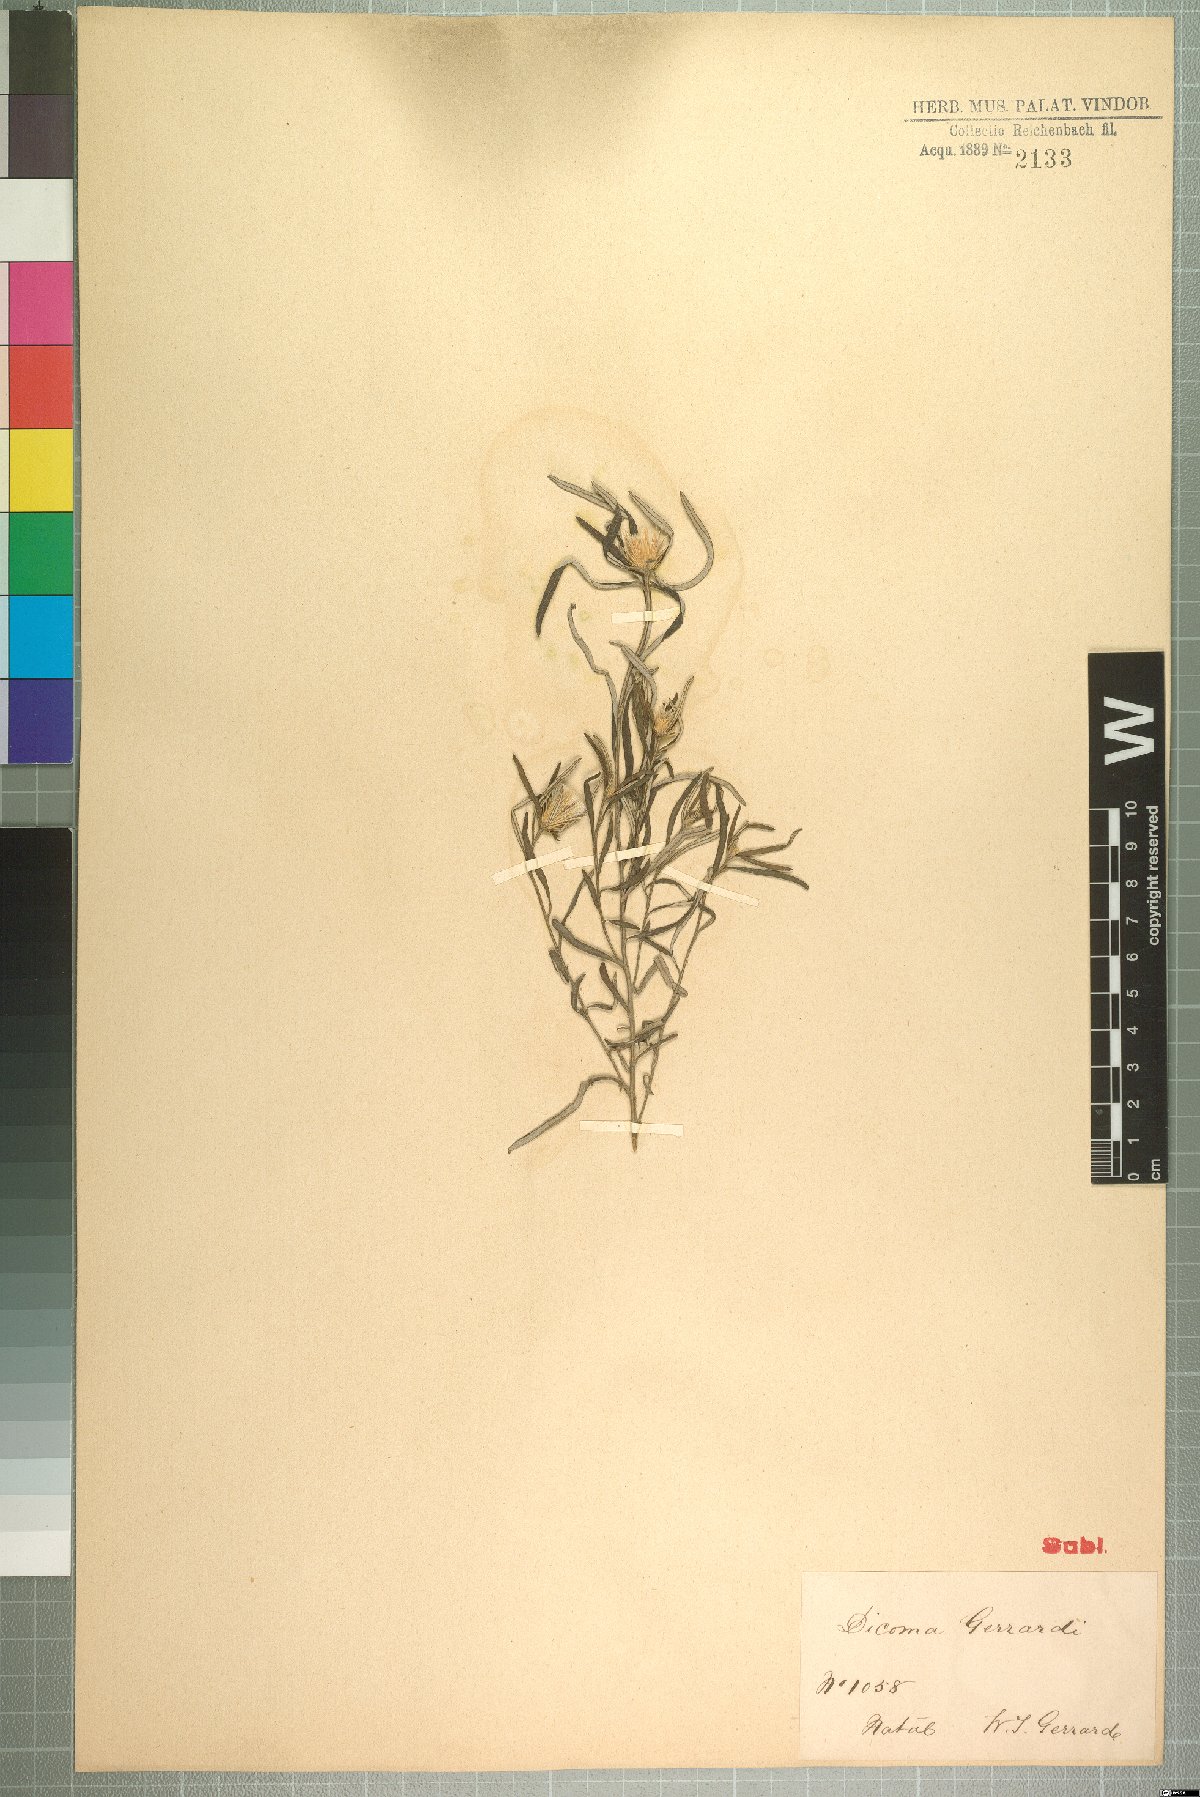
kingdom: Plantae
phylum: Tracheophyta
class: Magnoliopsida
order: Asterales
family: Asteraceae
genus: Dicoma
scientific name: Dicoma anomala
